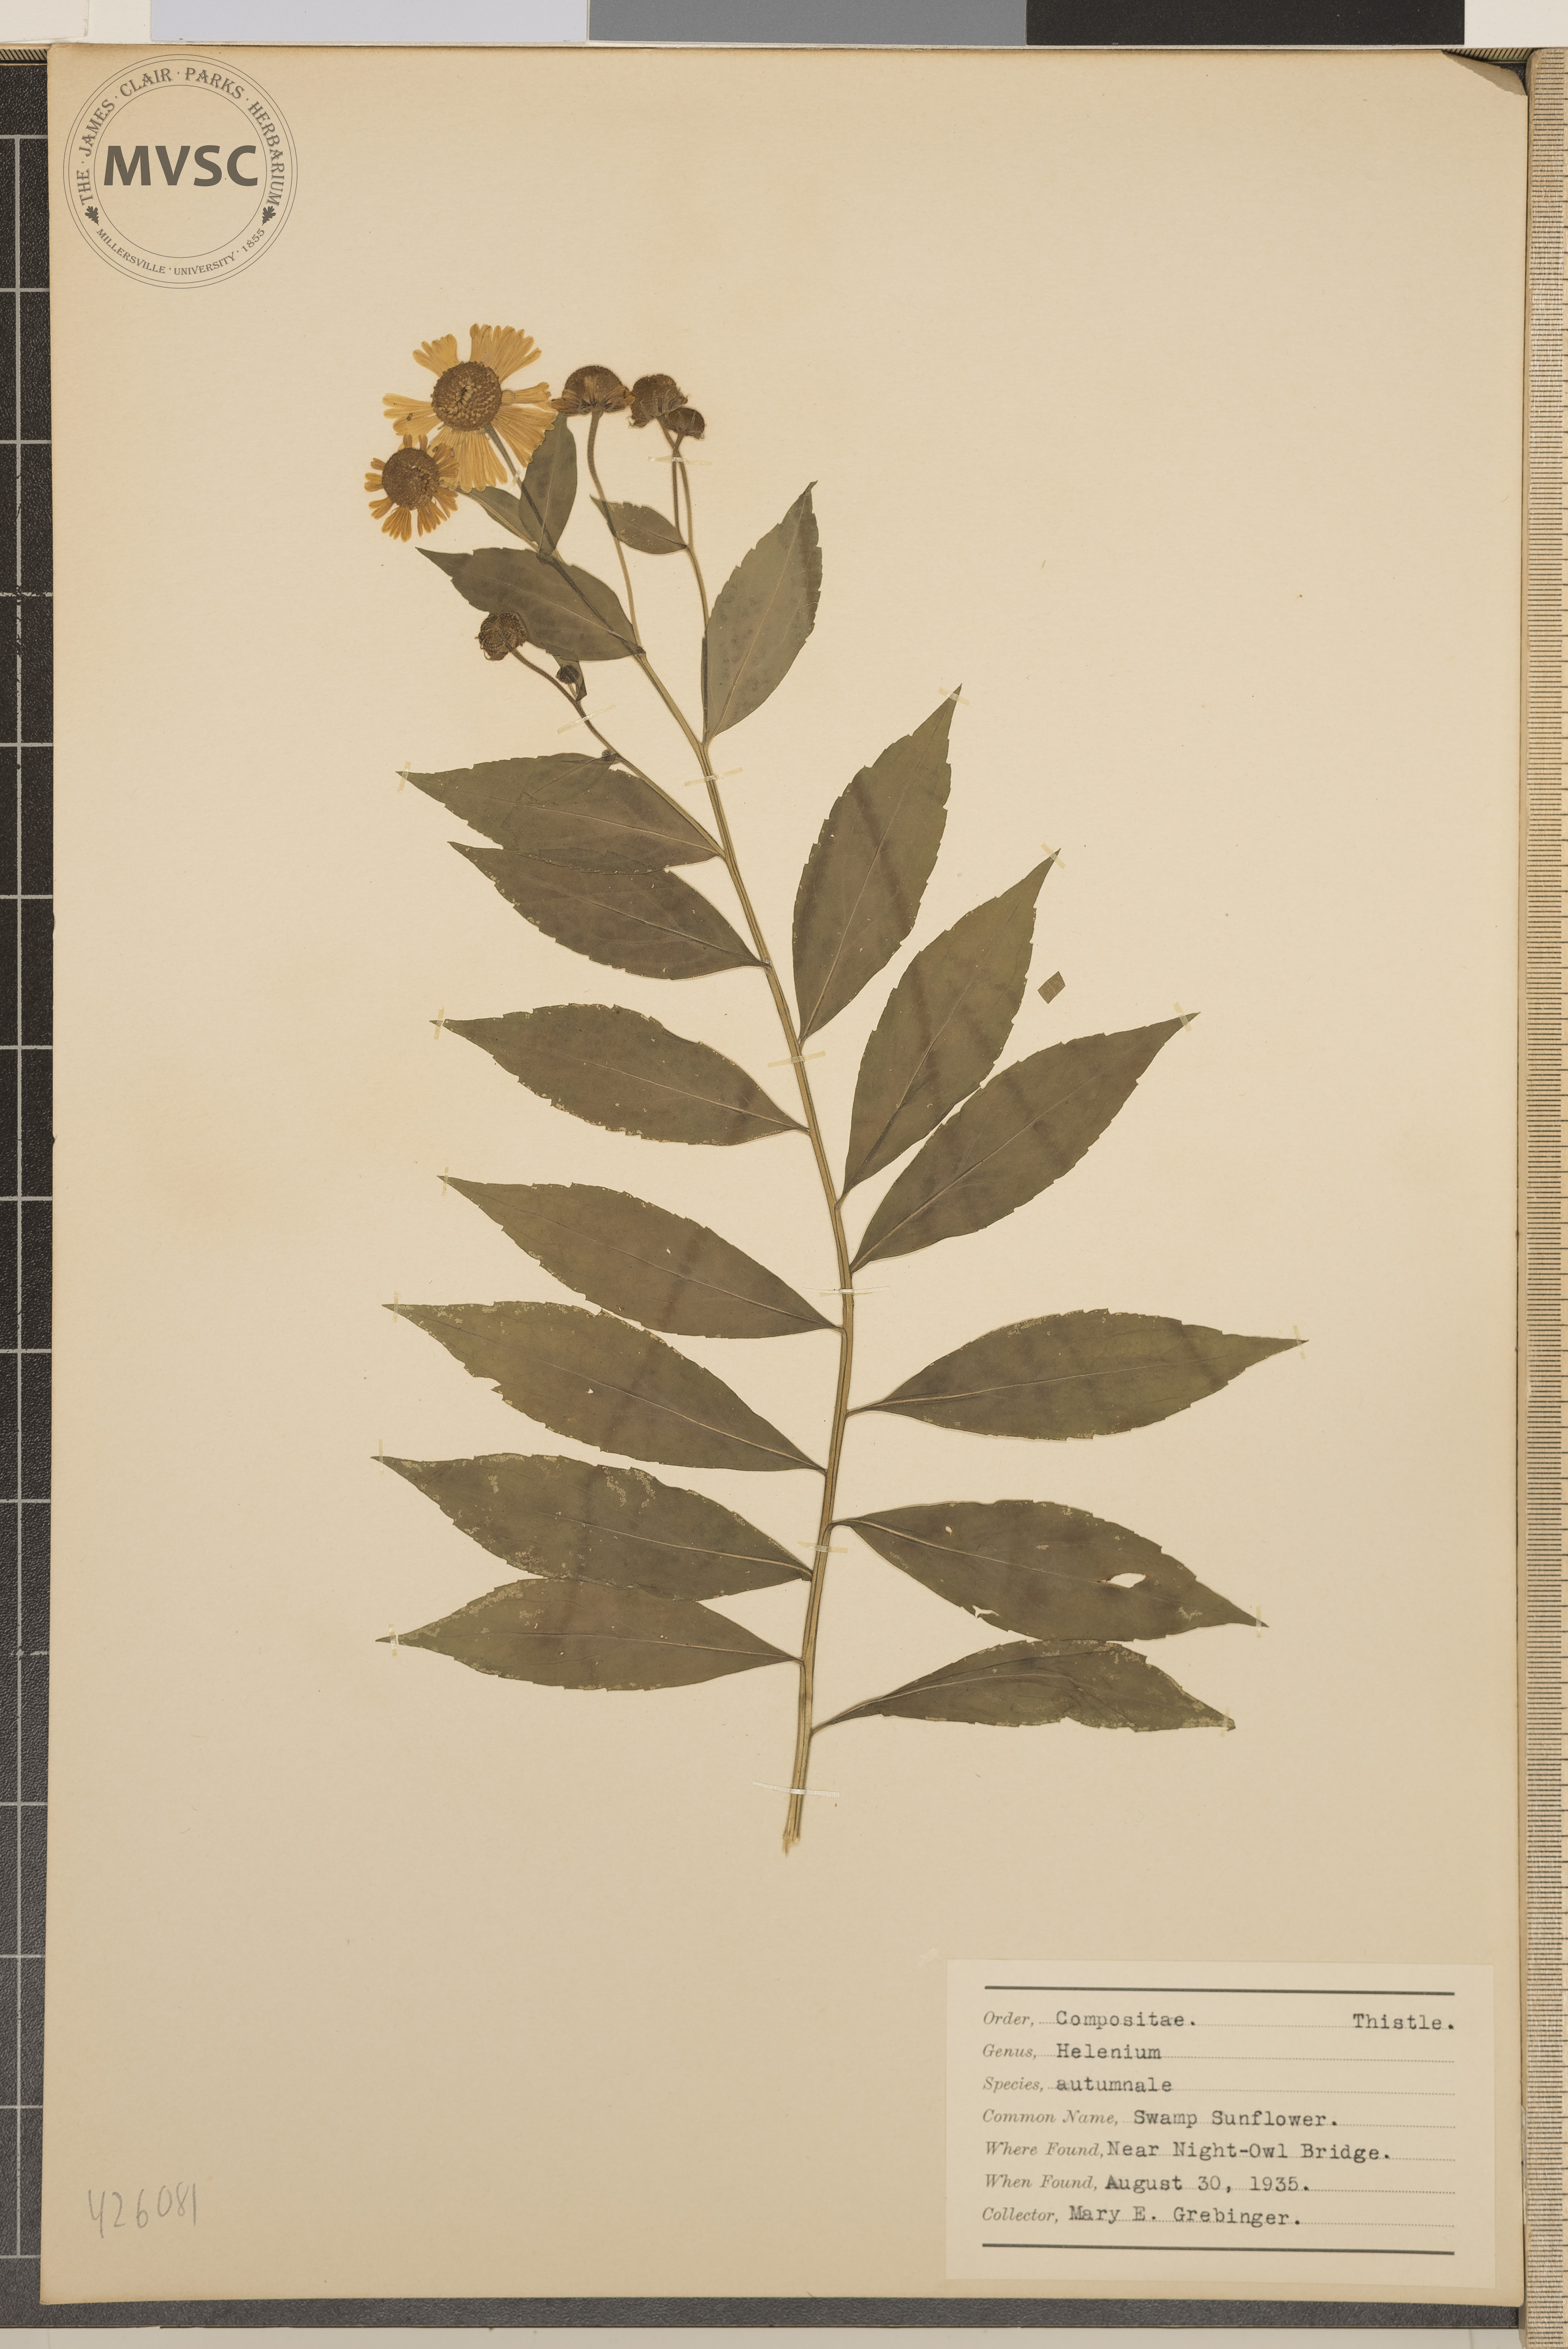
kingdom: Plantae
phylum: Tracheophyta
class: Magnoliopsida
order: Asterales
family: Asteraceae
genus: Helenium
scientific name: Helenium autumnale
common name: Swamp sunflower
